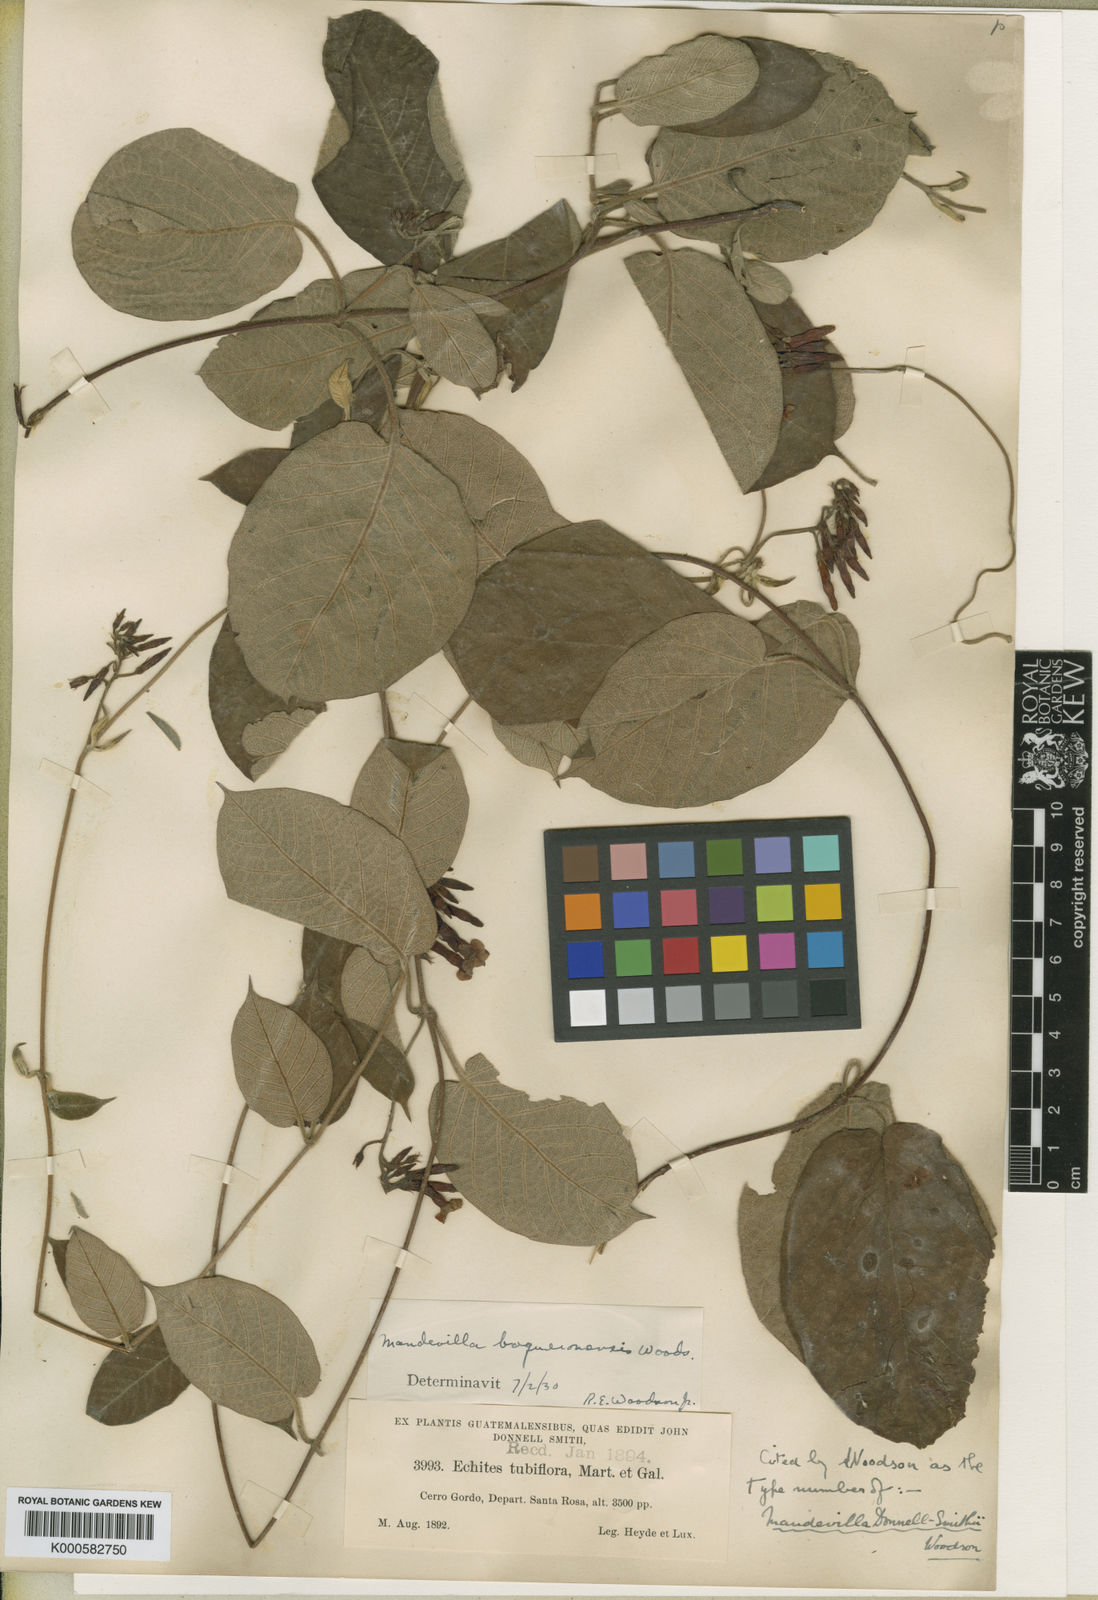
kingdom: Plantae
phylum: Tracheophyta
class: Magnoliopsida
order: Gentianales
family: Apocynaceae
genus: Mandevilla
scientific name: Mandevilla tubiflora
